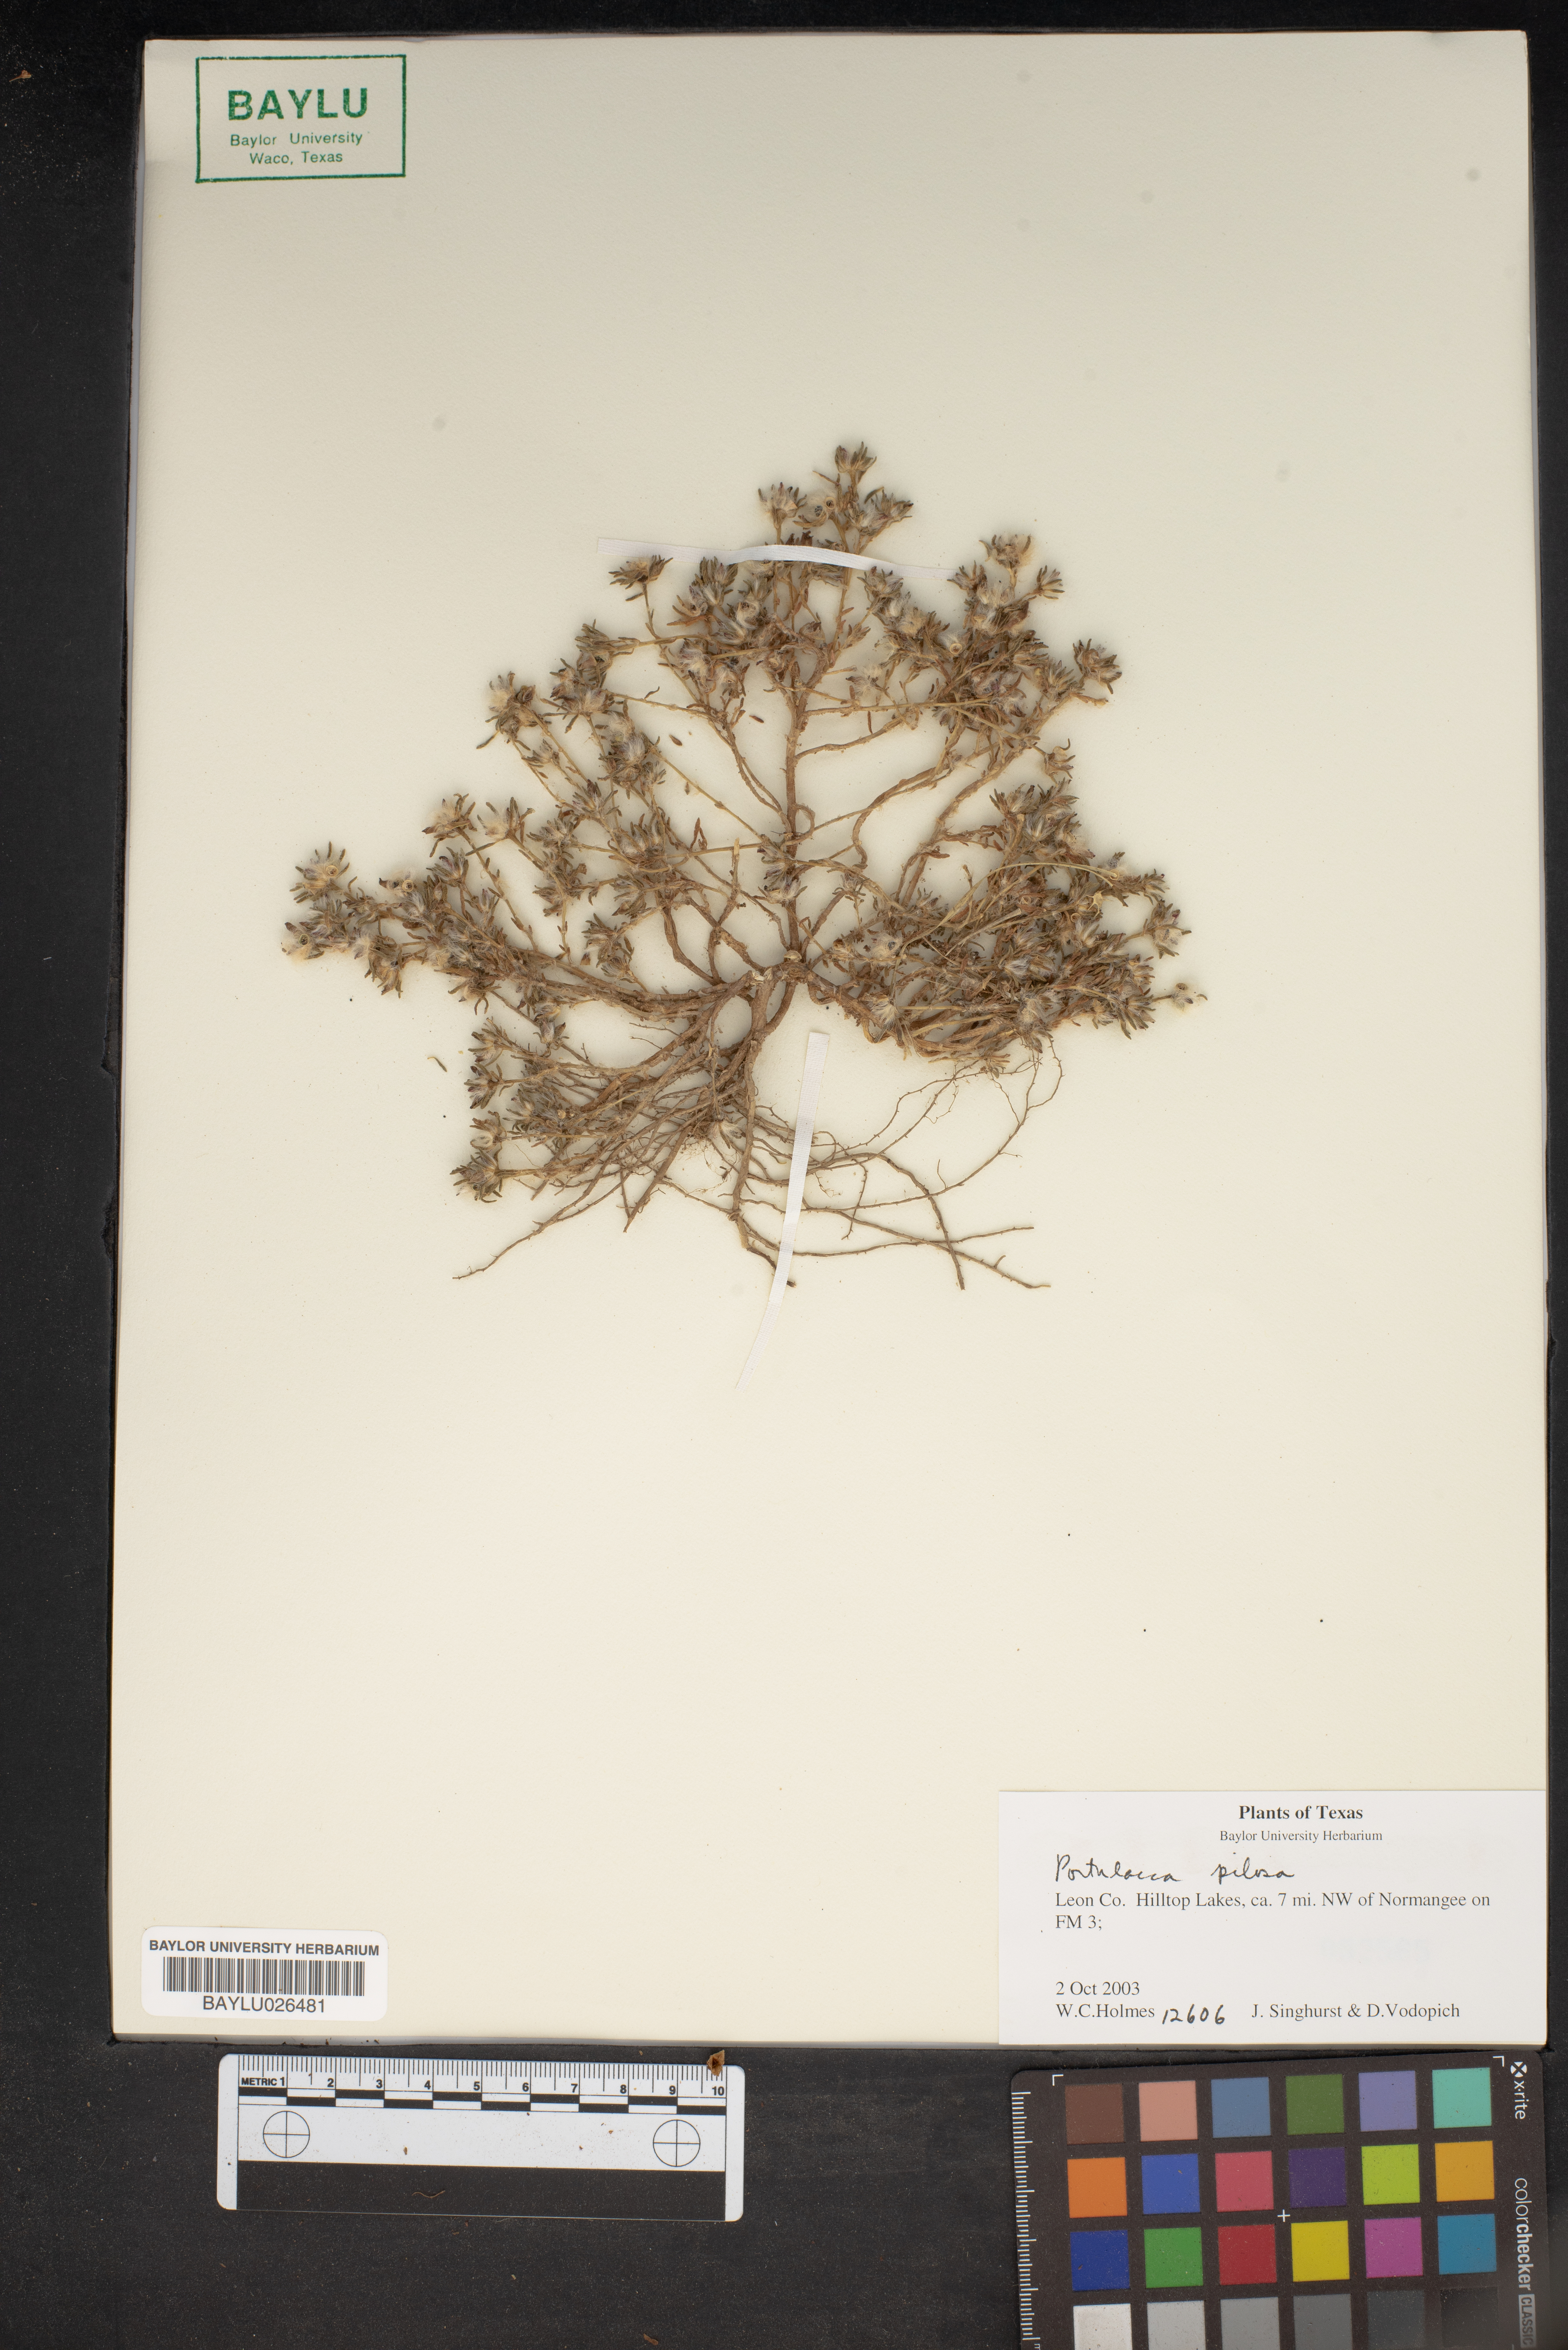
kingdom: Plantae
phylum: Tracheophyta
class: Magnoliopsida
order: Caryophyllales
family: Portulacaceae
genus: Portulaca
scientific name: Portulaca pilosa
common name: Kiss me quick
